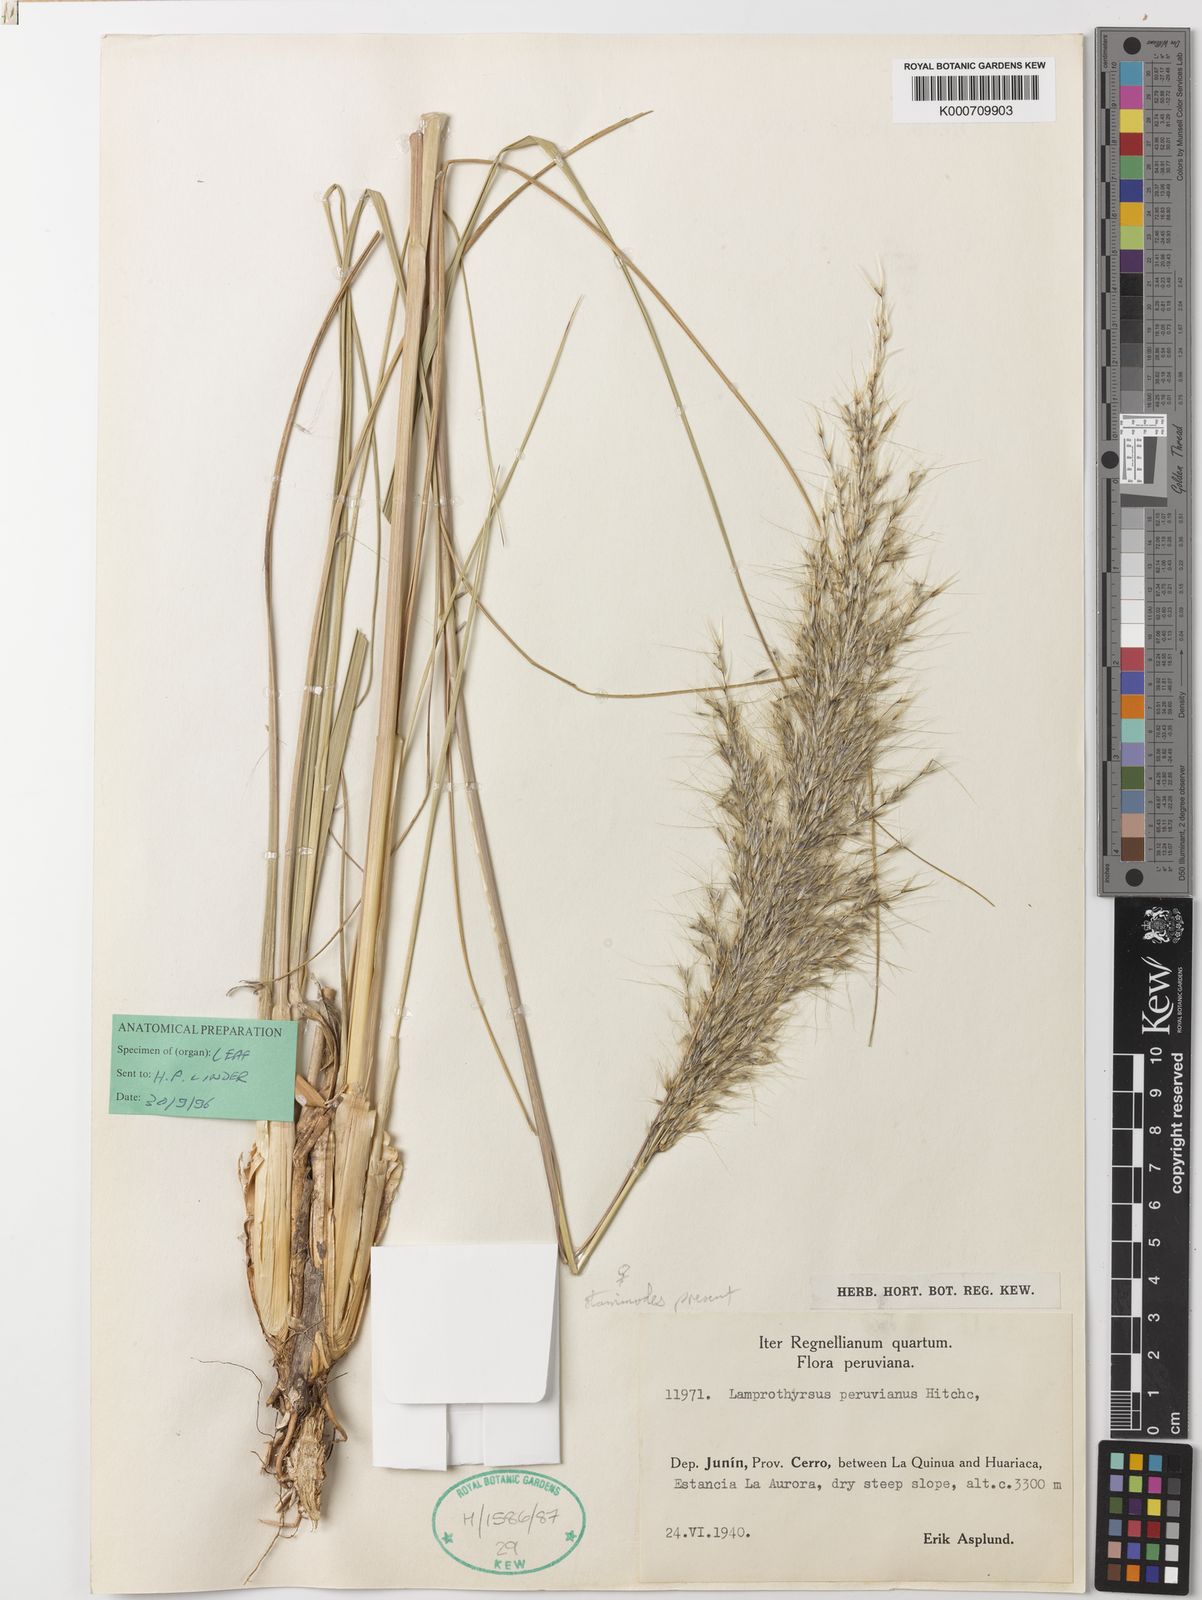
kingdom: Plantae
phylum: Tracheophyta
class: Liliopsida
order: Poales
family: Poaceae
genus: Cortaderia
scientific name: Cortaderia hieronymi
